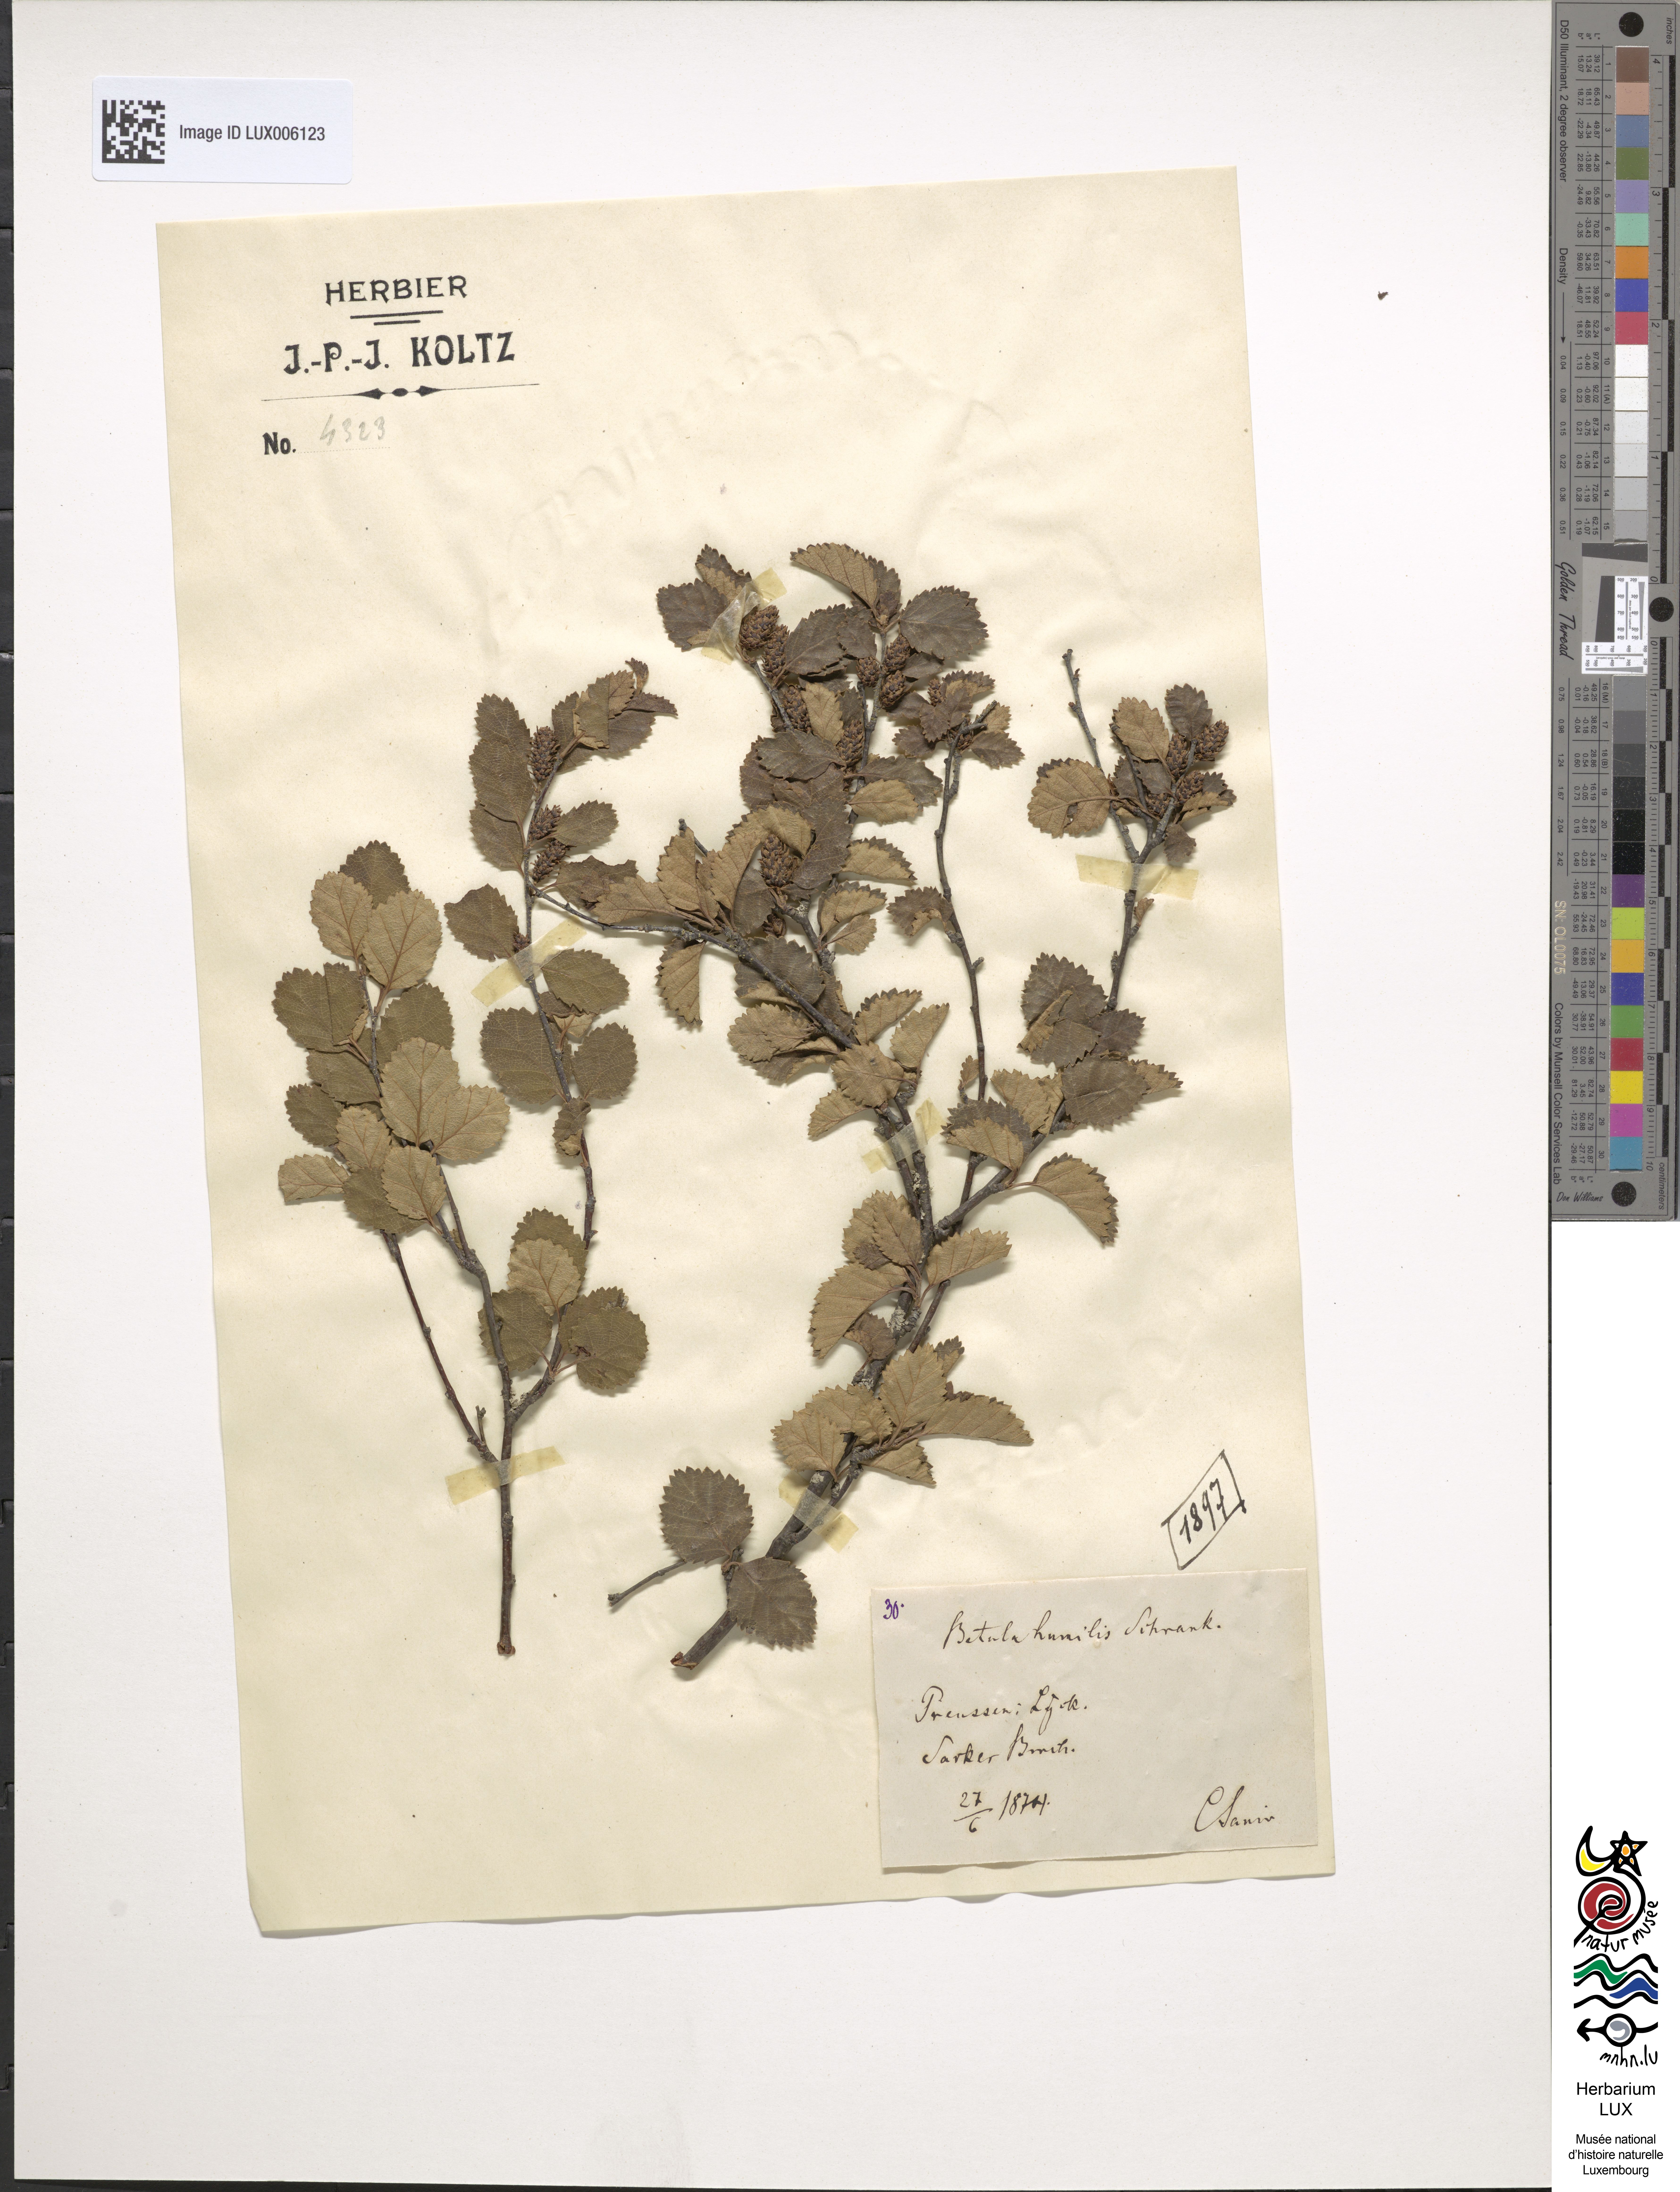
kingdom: Plantae
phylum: Tracheophyta
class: Magnoliopsida
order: Fagales
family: Betulaceae
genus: Betula
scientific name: Betula humilis
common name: Shrubby birch
